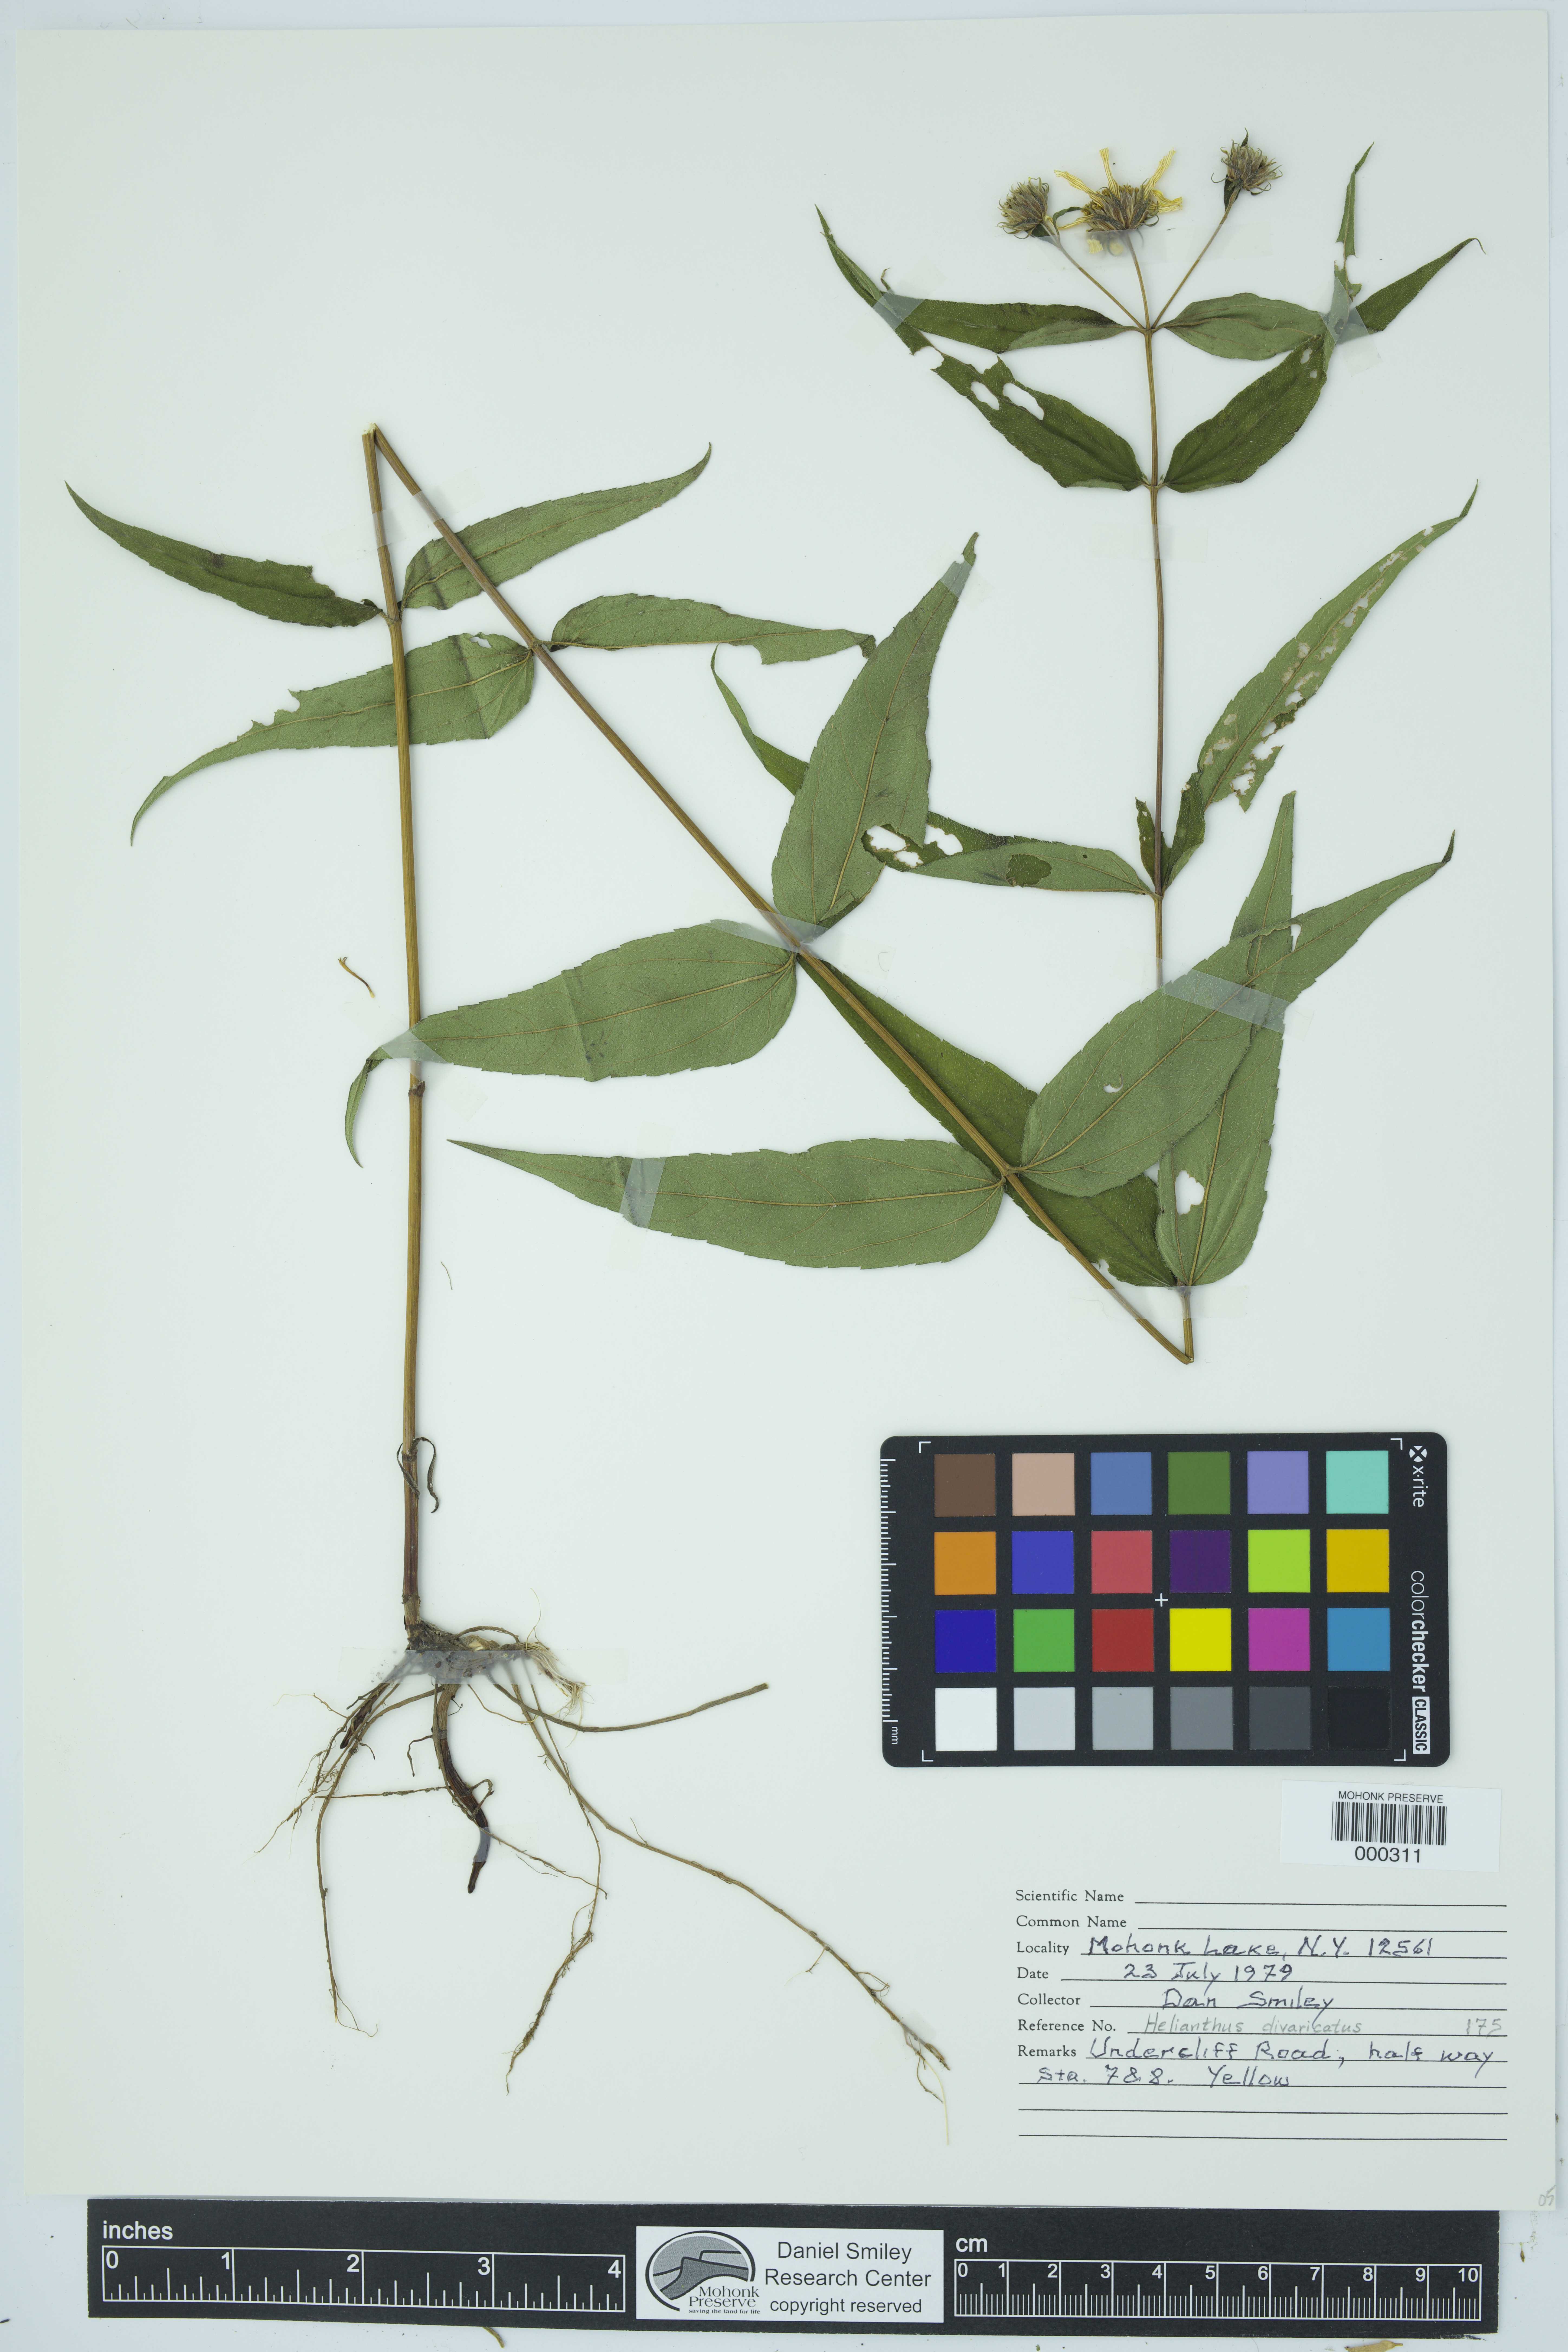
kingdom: Plantae
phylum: Tracheophyta
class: Magnoliopsida
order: Asterales
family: Asteraceae
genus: Helianthus
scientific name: Helianthus divaricatus
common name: Divergent sunflower
